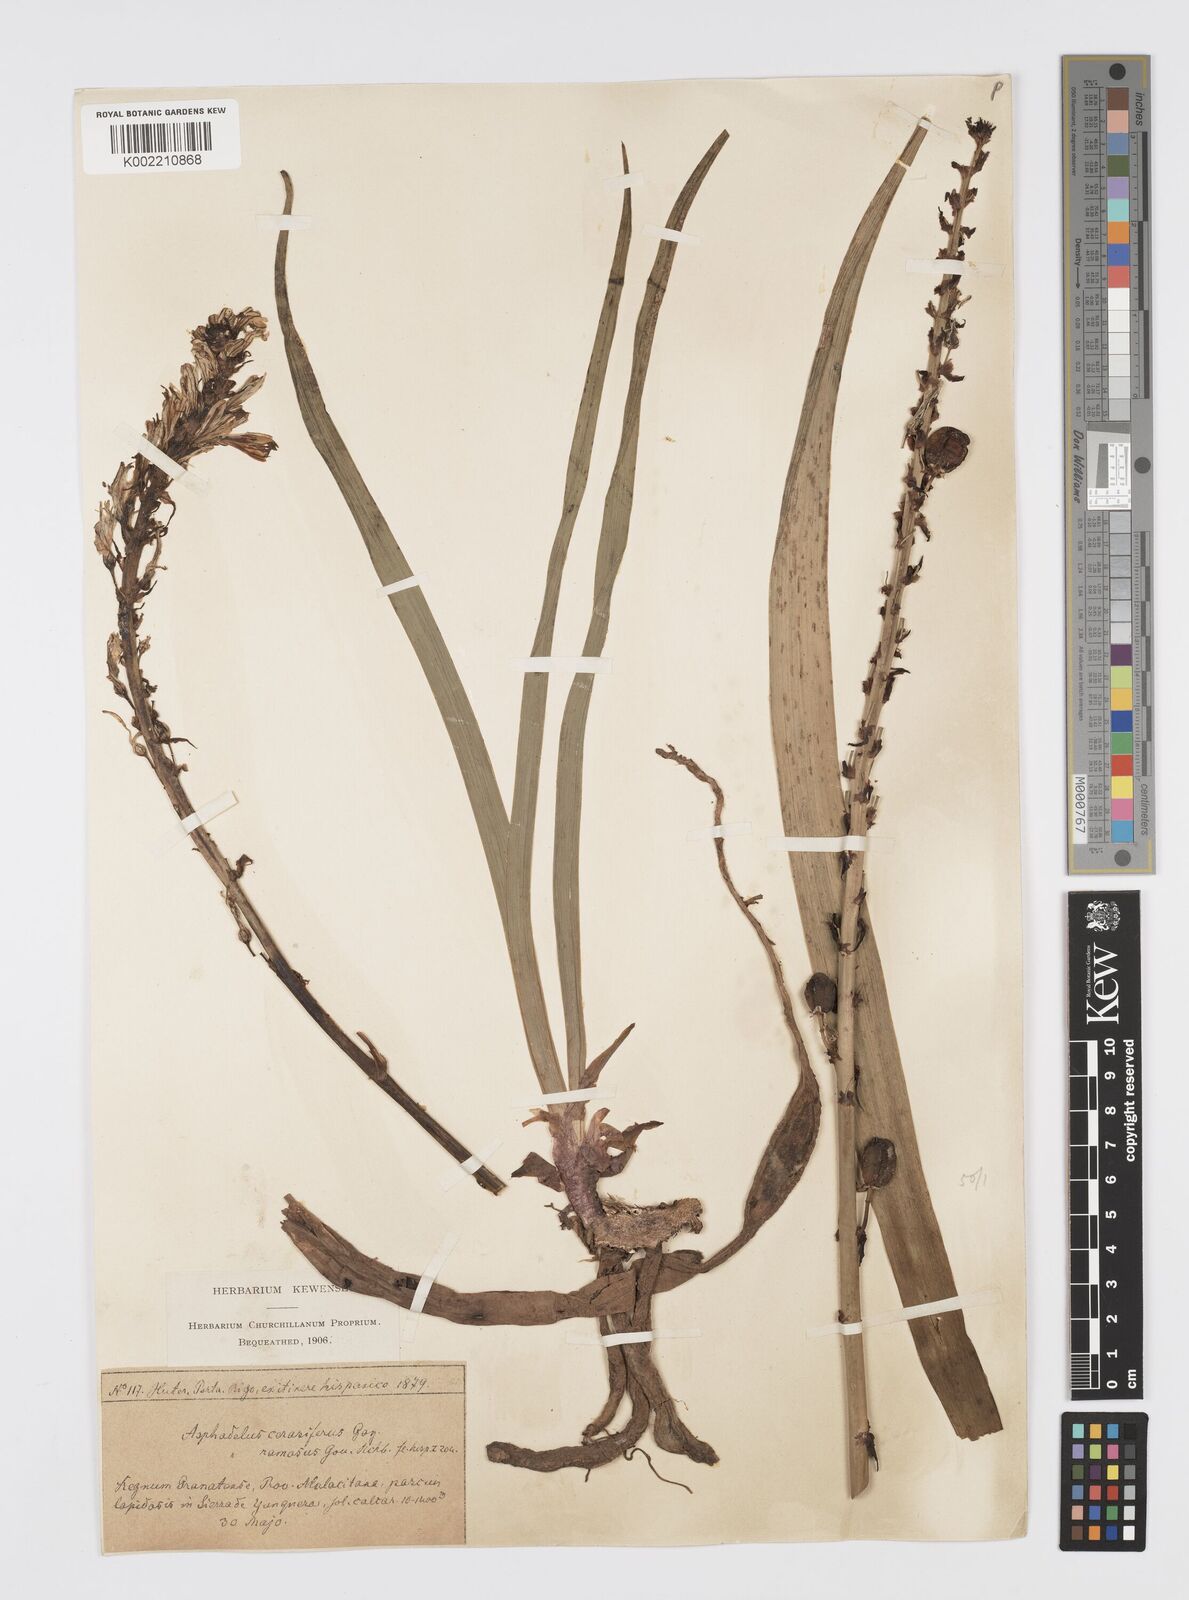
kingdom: Plantae
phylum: Tracheophyta
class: Liliopsida
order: Asparagales
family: Asphodelaceae
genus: Asphodelus
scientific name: Asphodelus albus
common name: White asphodel
